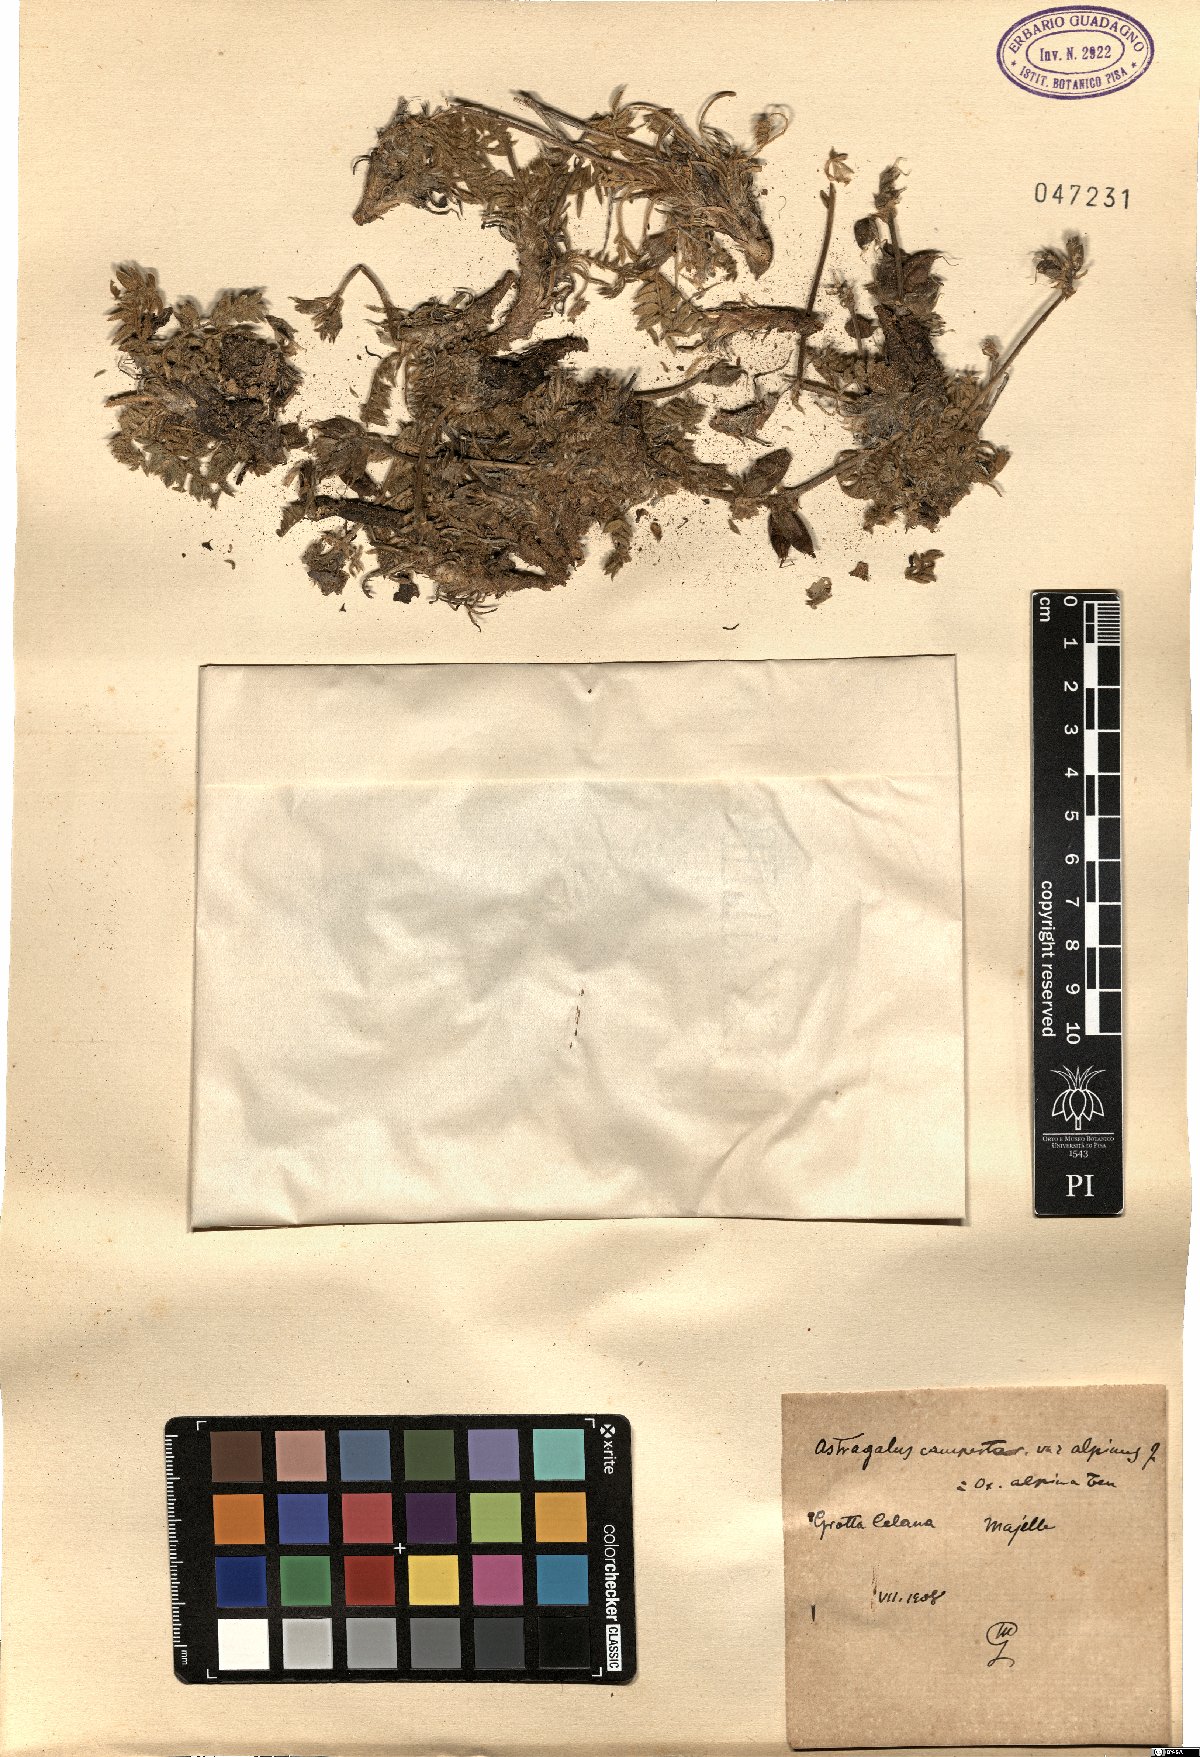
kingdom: Plantae
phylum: Tracheophyta
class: Magnoliopsida
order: Fabales
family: Fabaceae
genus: Oxytropis
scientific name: Oxytropis campestris
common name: Field locoweed
